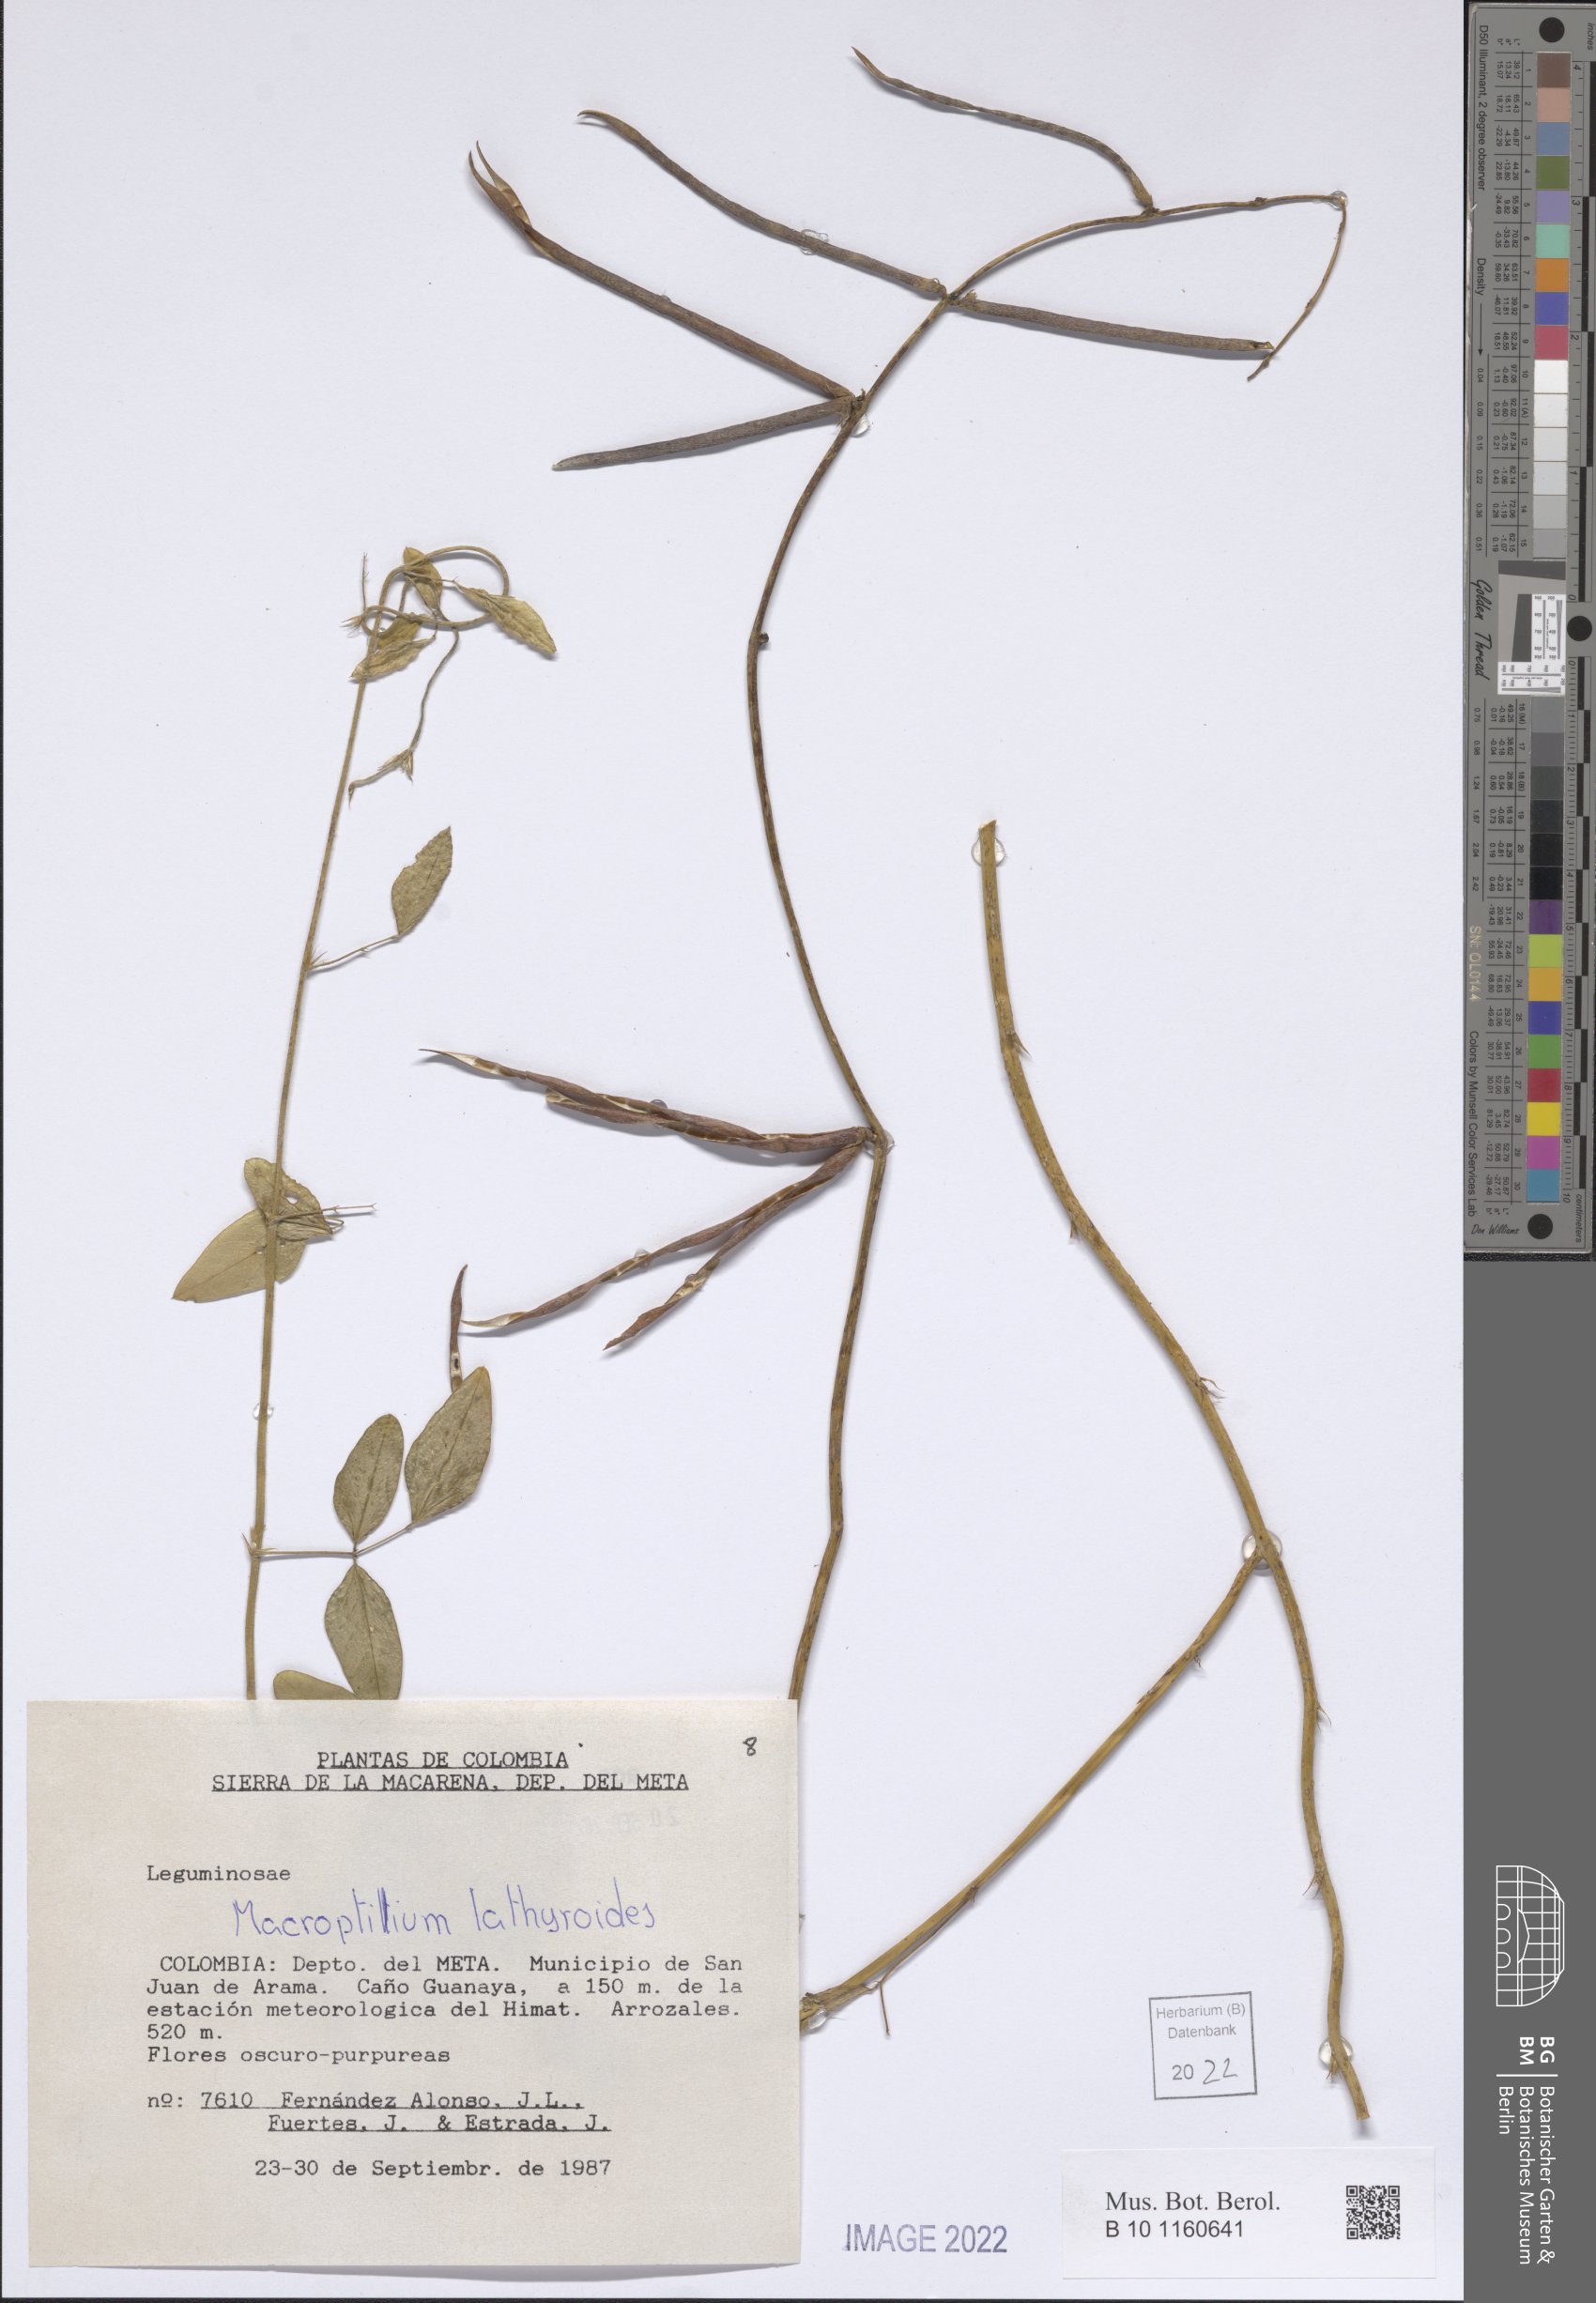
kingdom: Plantae
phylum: Tracheophyta
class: Magnoliopsida
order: Fabales
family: Fabaceae
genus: Macroptilium
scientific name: Macroptilium lathyroides
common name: Wild bushbean
